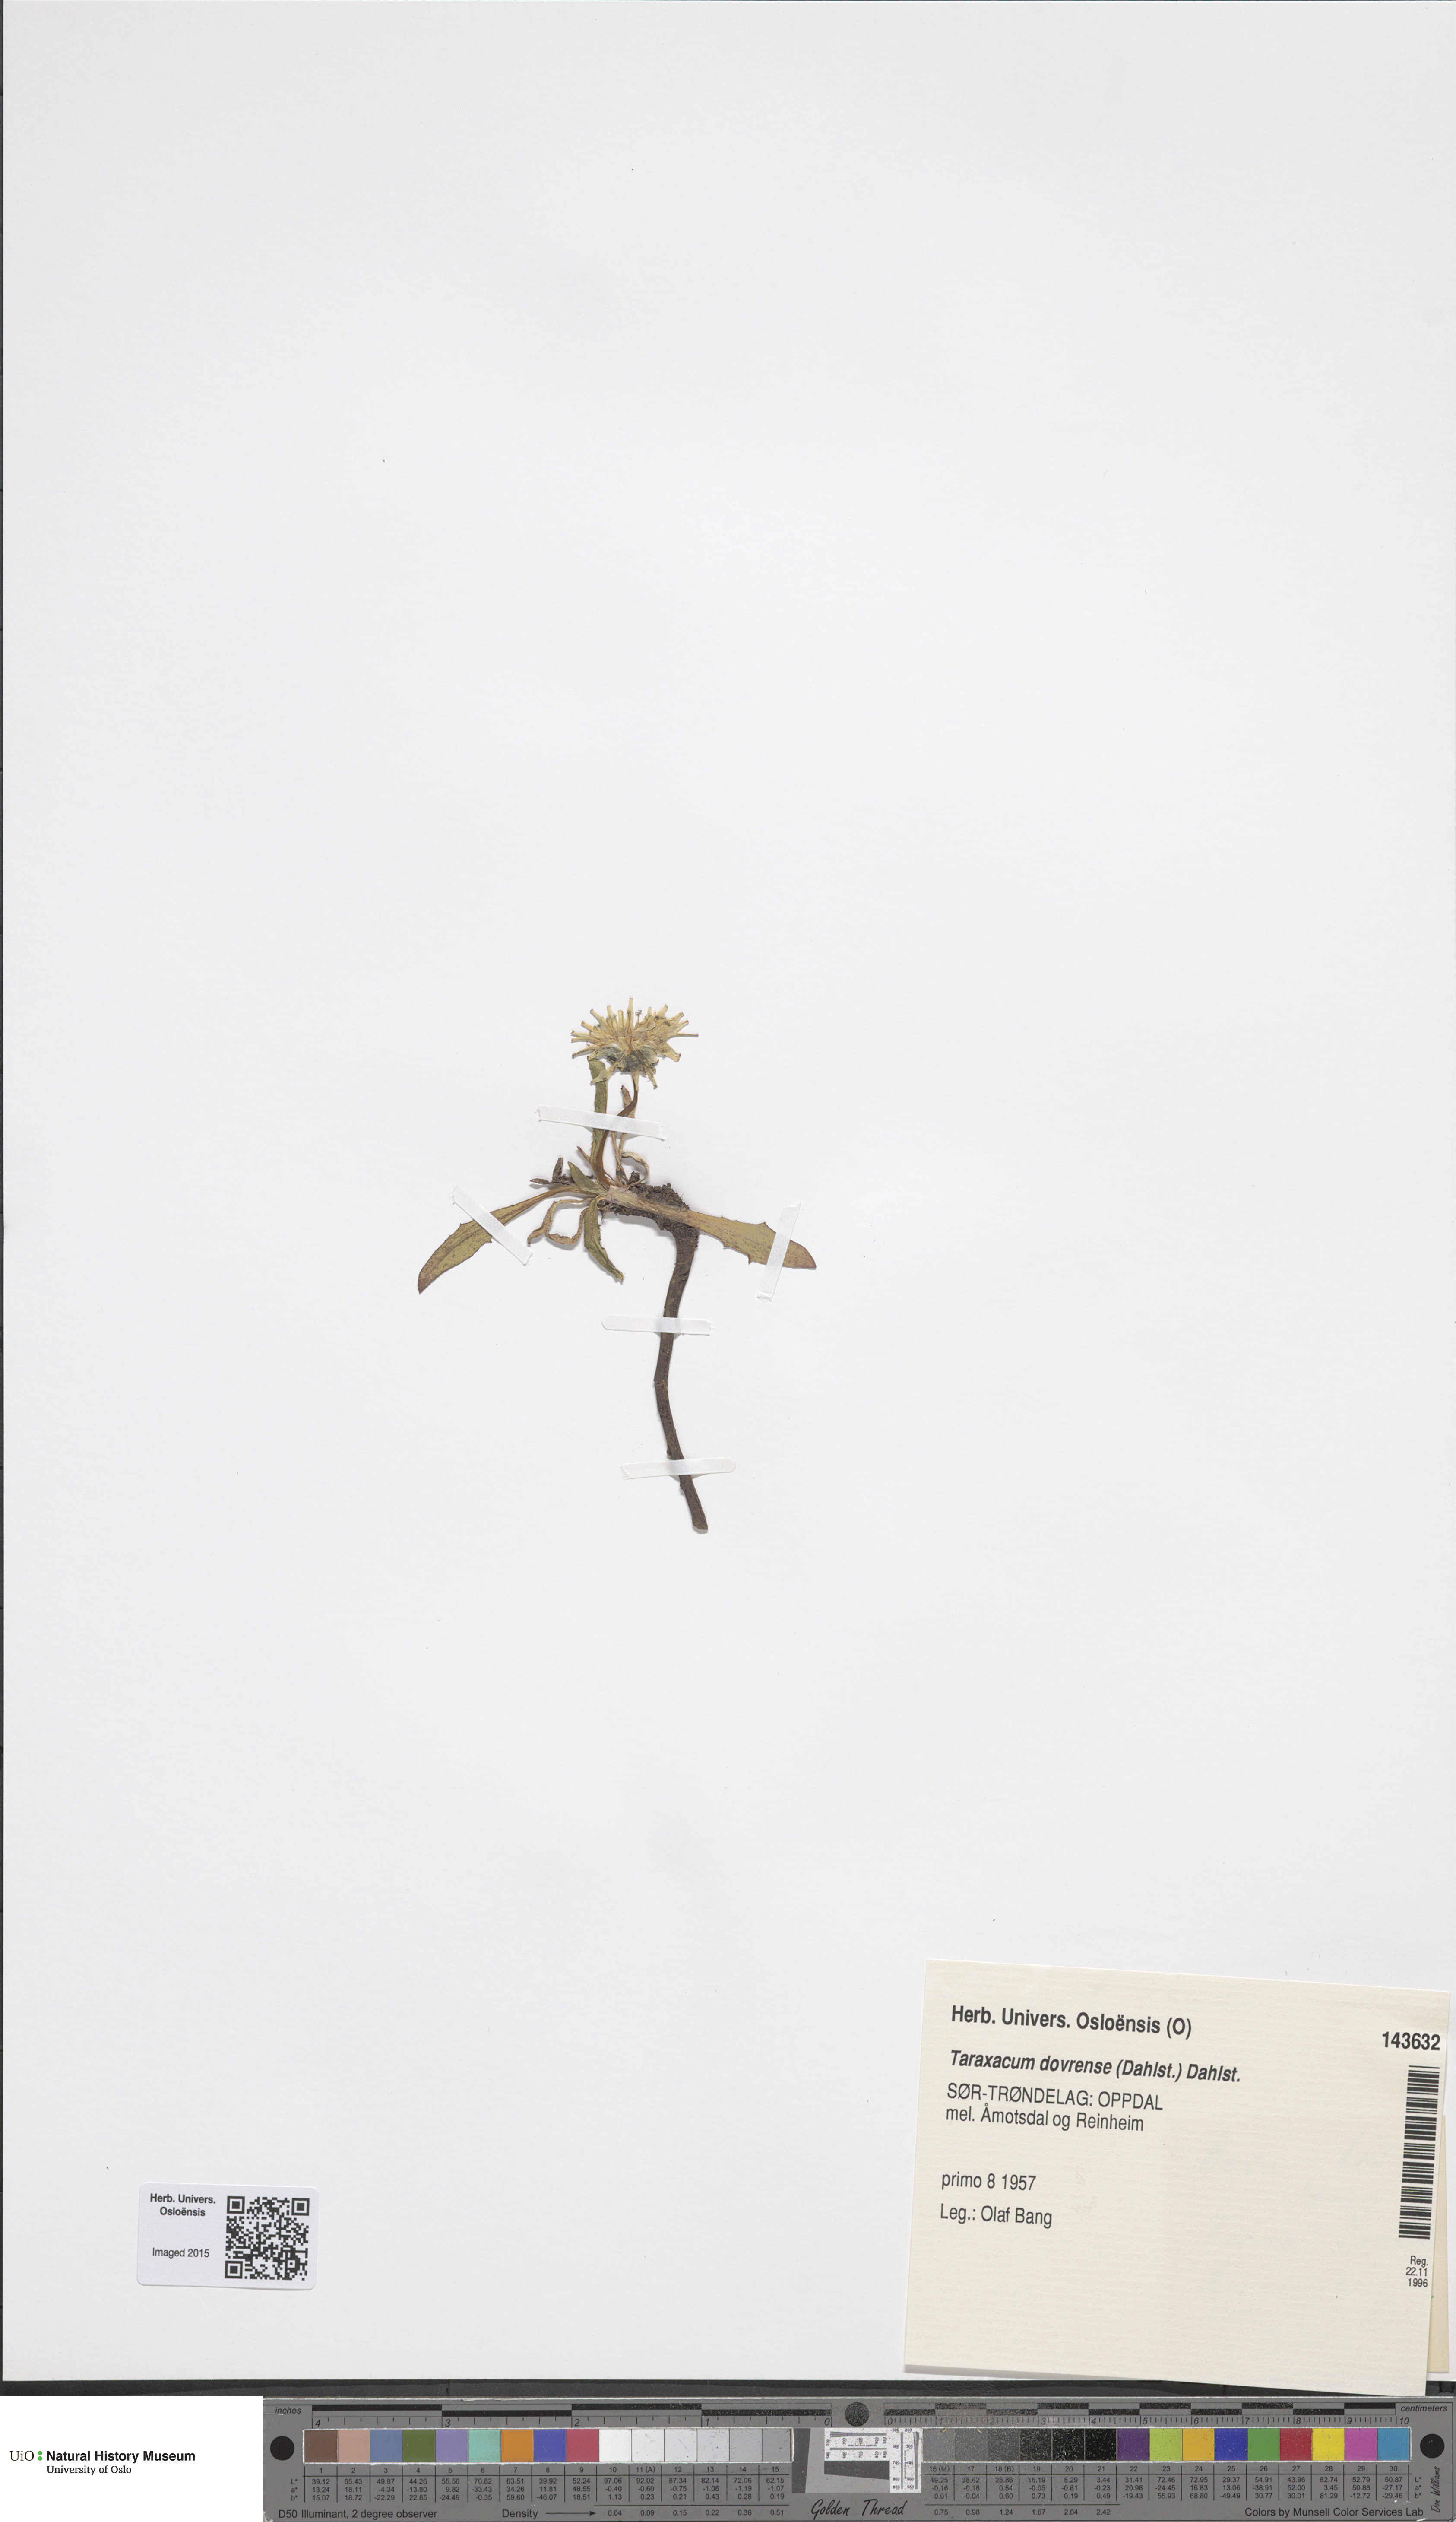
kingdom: Plantae
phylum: Tracheophyta
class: Magnoliopsida
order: Asterales
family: Asteraceae
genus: Taraxacum
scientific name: Taraxacum dovrense
